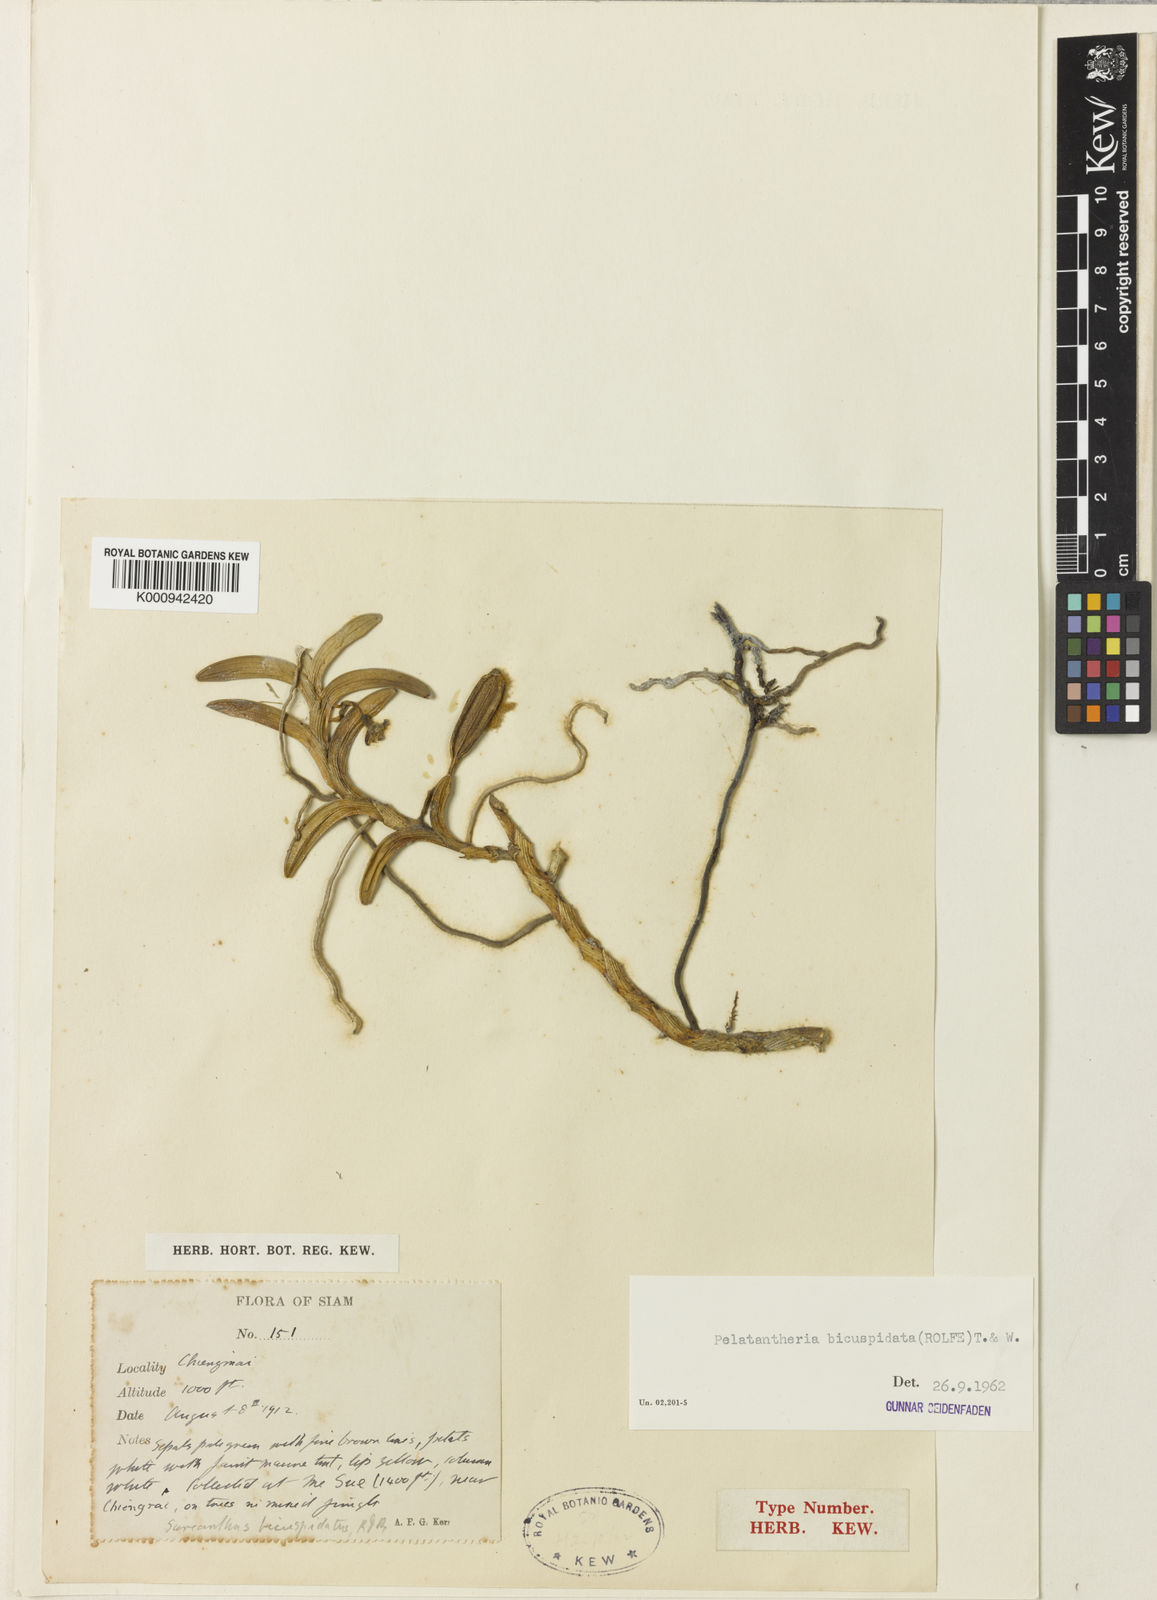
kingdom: Plantae
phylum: Tracheophyta
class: Liliopsida
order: Asparagales
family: Orchidaceae
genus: Pelatantheria
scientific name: Pelatantheria bicuspidata
